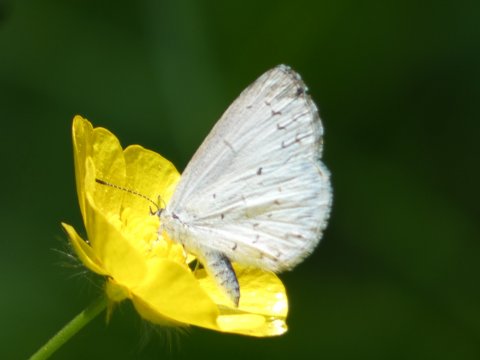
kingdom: Animalia
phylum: Arthropoda
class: Insecta
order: Lepidoptera
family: Lycaenidae
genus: Cyaniris
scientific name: Cyaniris neglecta
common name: Summer Azure
